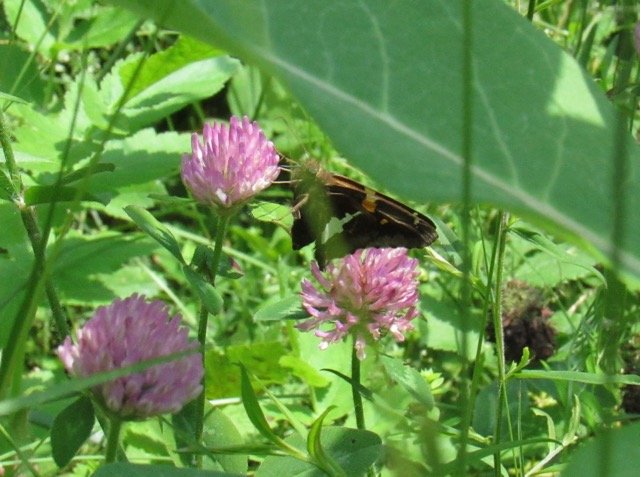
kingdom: Animalia
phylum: Arthropoda
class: Insecta
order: Lepidoptera
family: Hesperiidae
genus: Epargyreus
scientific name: Epargyreus clarus
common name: Silver-spotted Skipper
